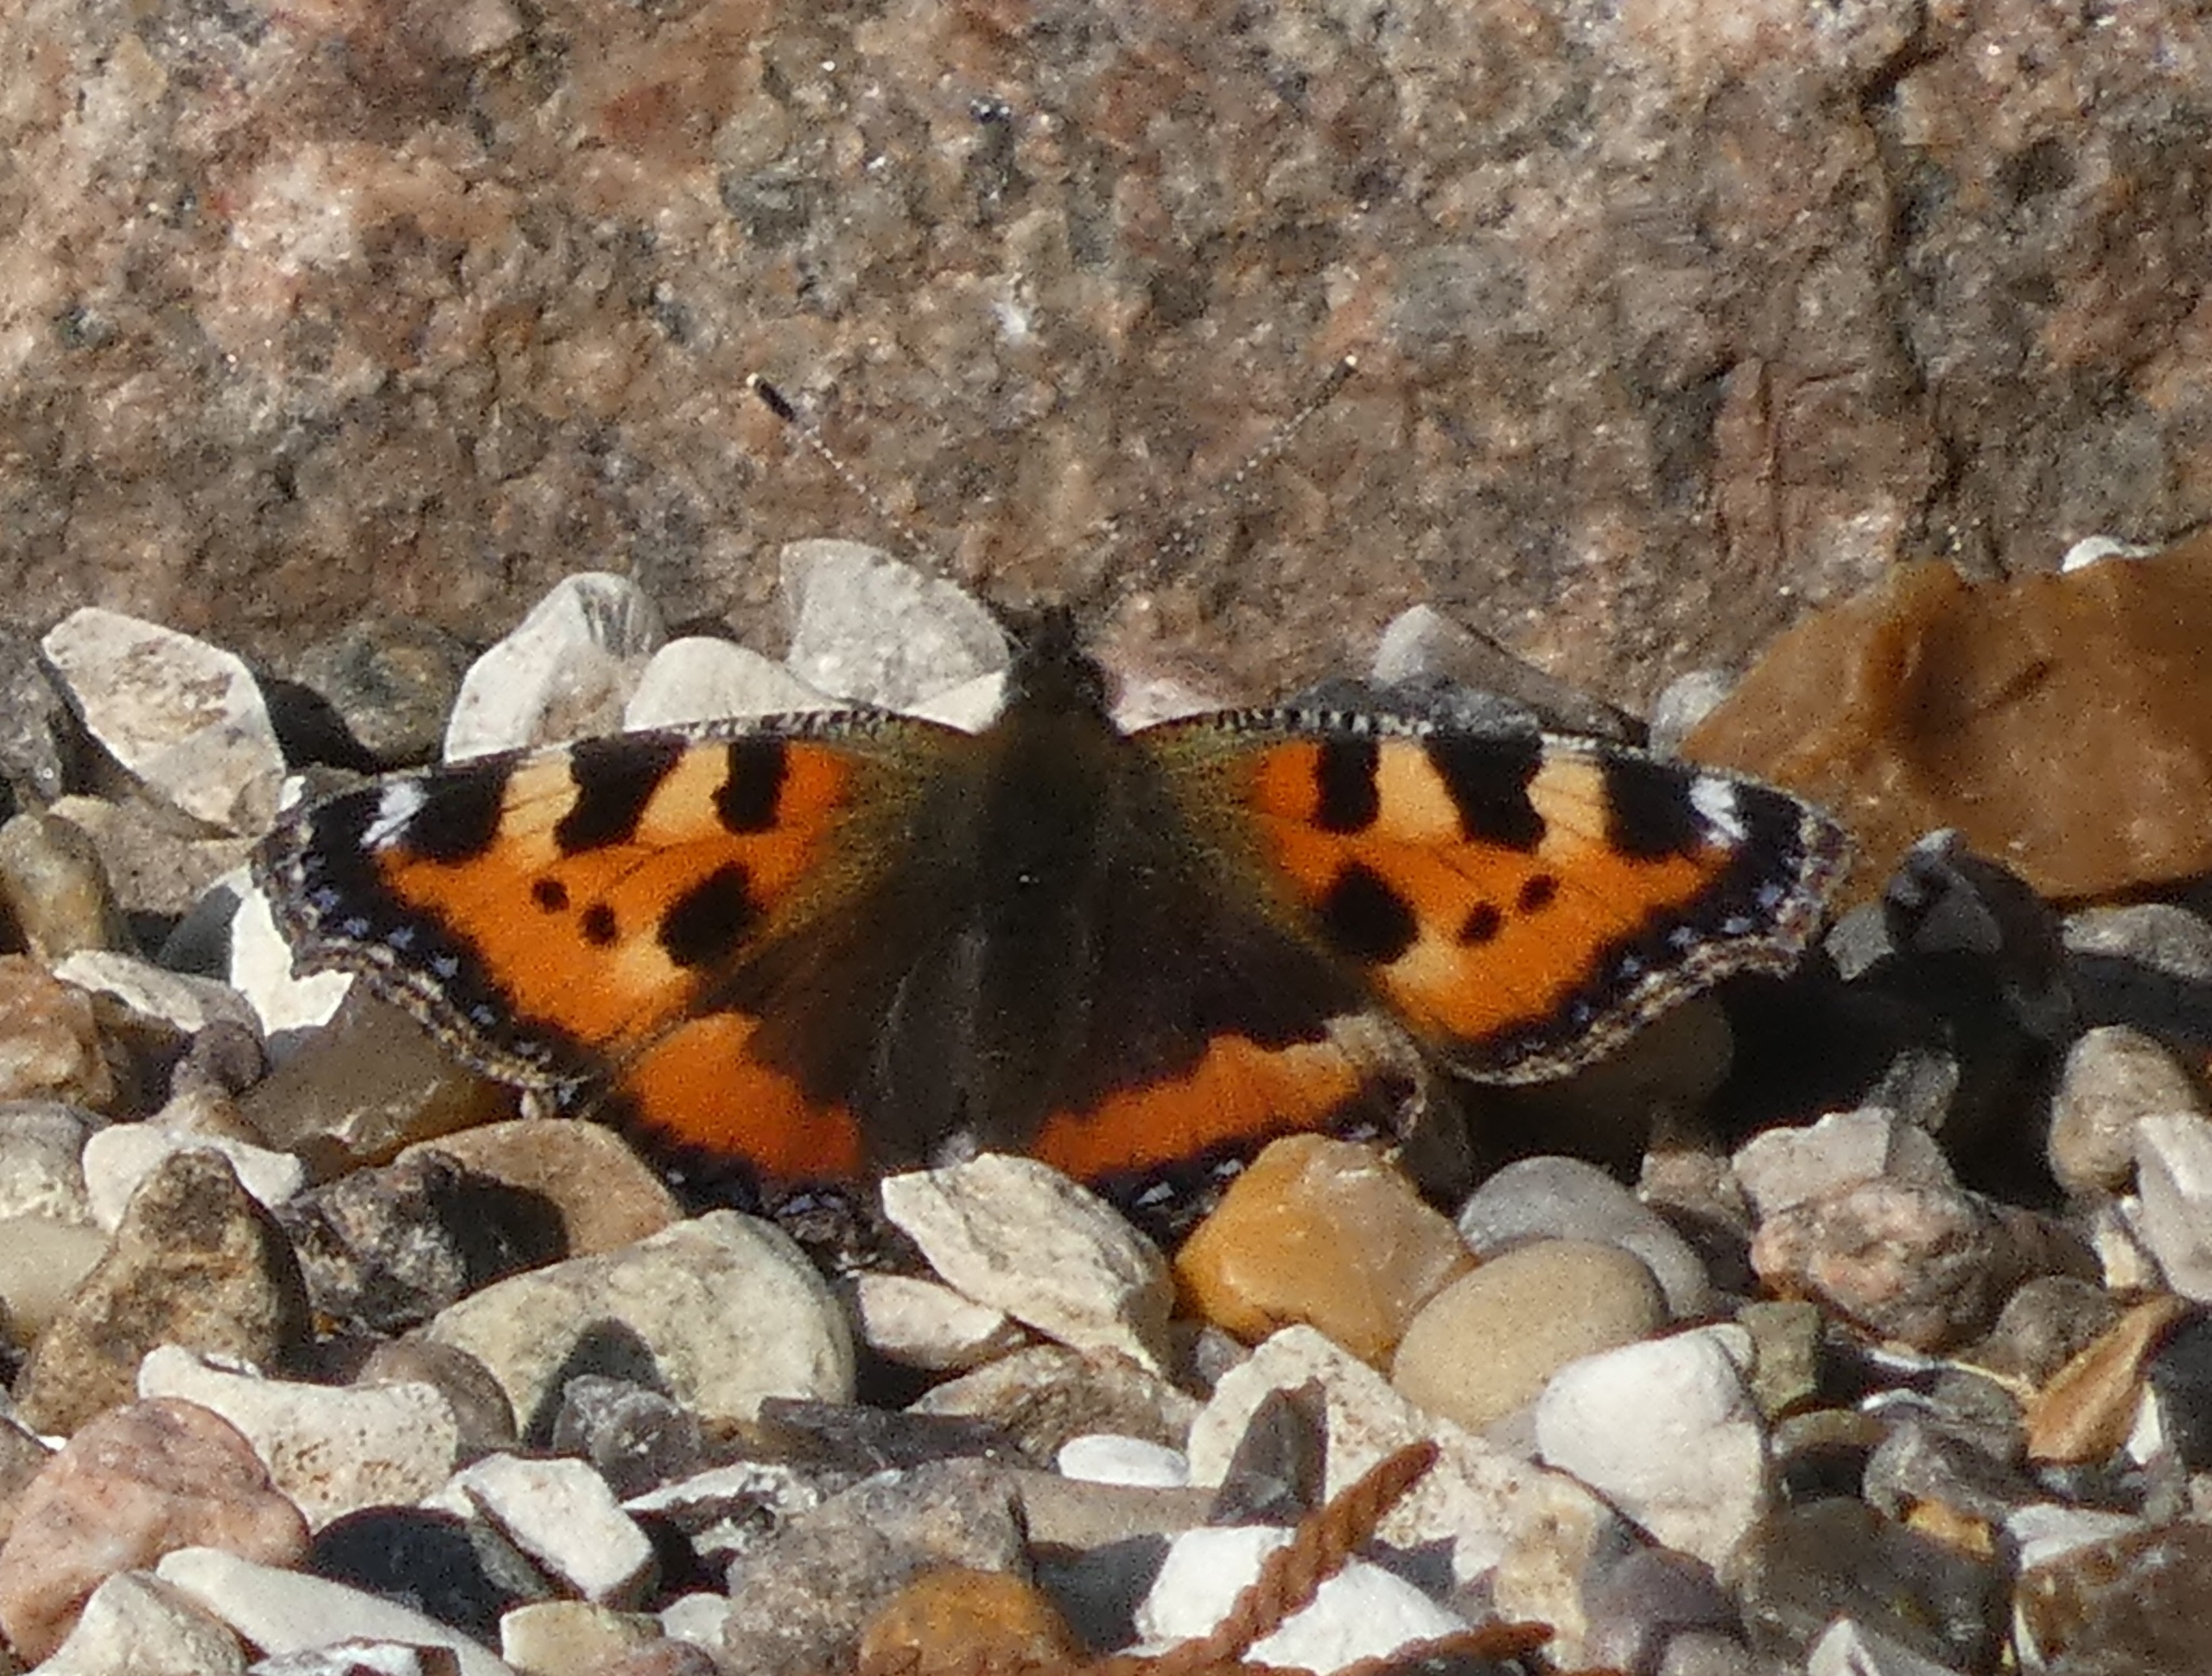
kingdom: Animalia
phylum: Arthropoda
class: Insecta
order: Lepidoptera
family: Nymphalidae
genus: Aglais
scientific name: Aglais urticae
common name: Nældens takvinge
